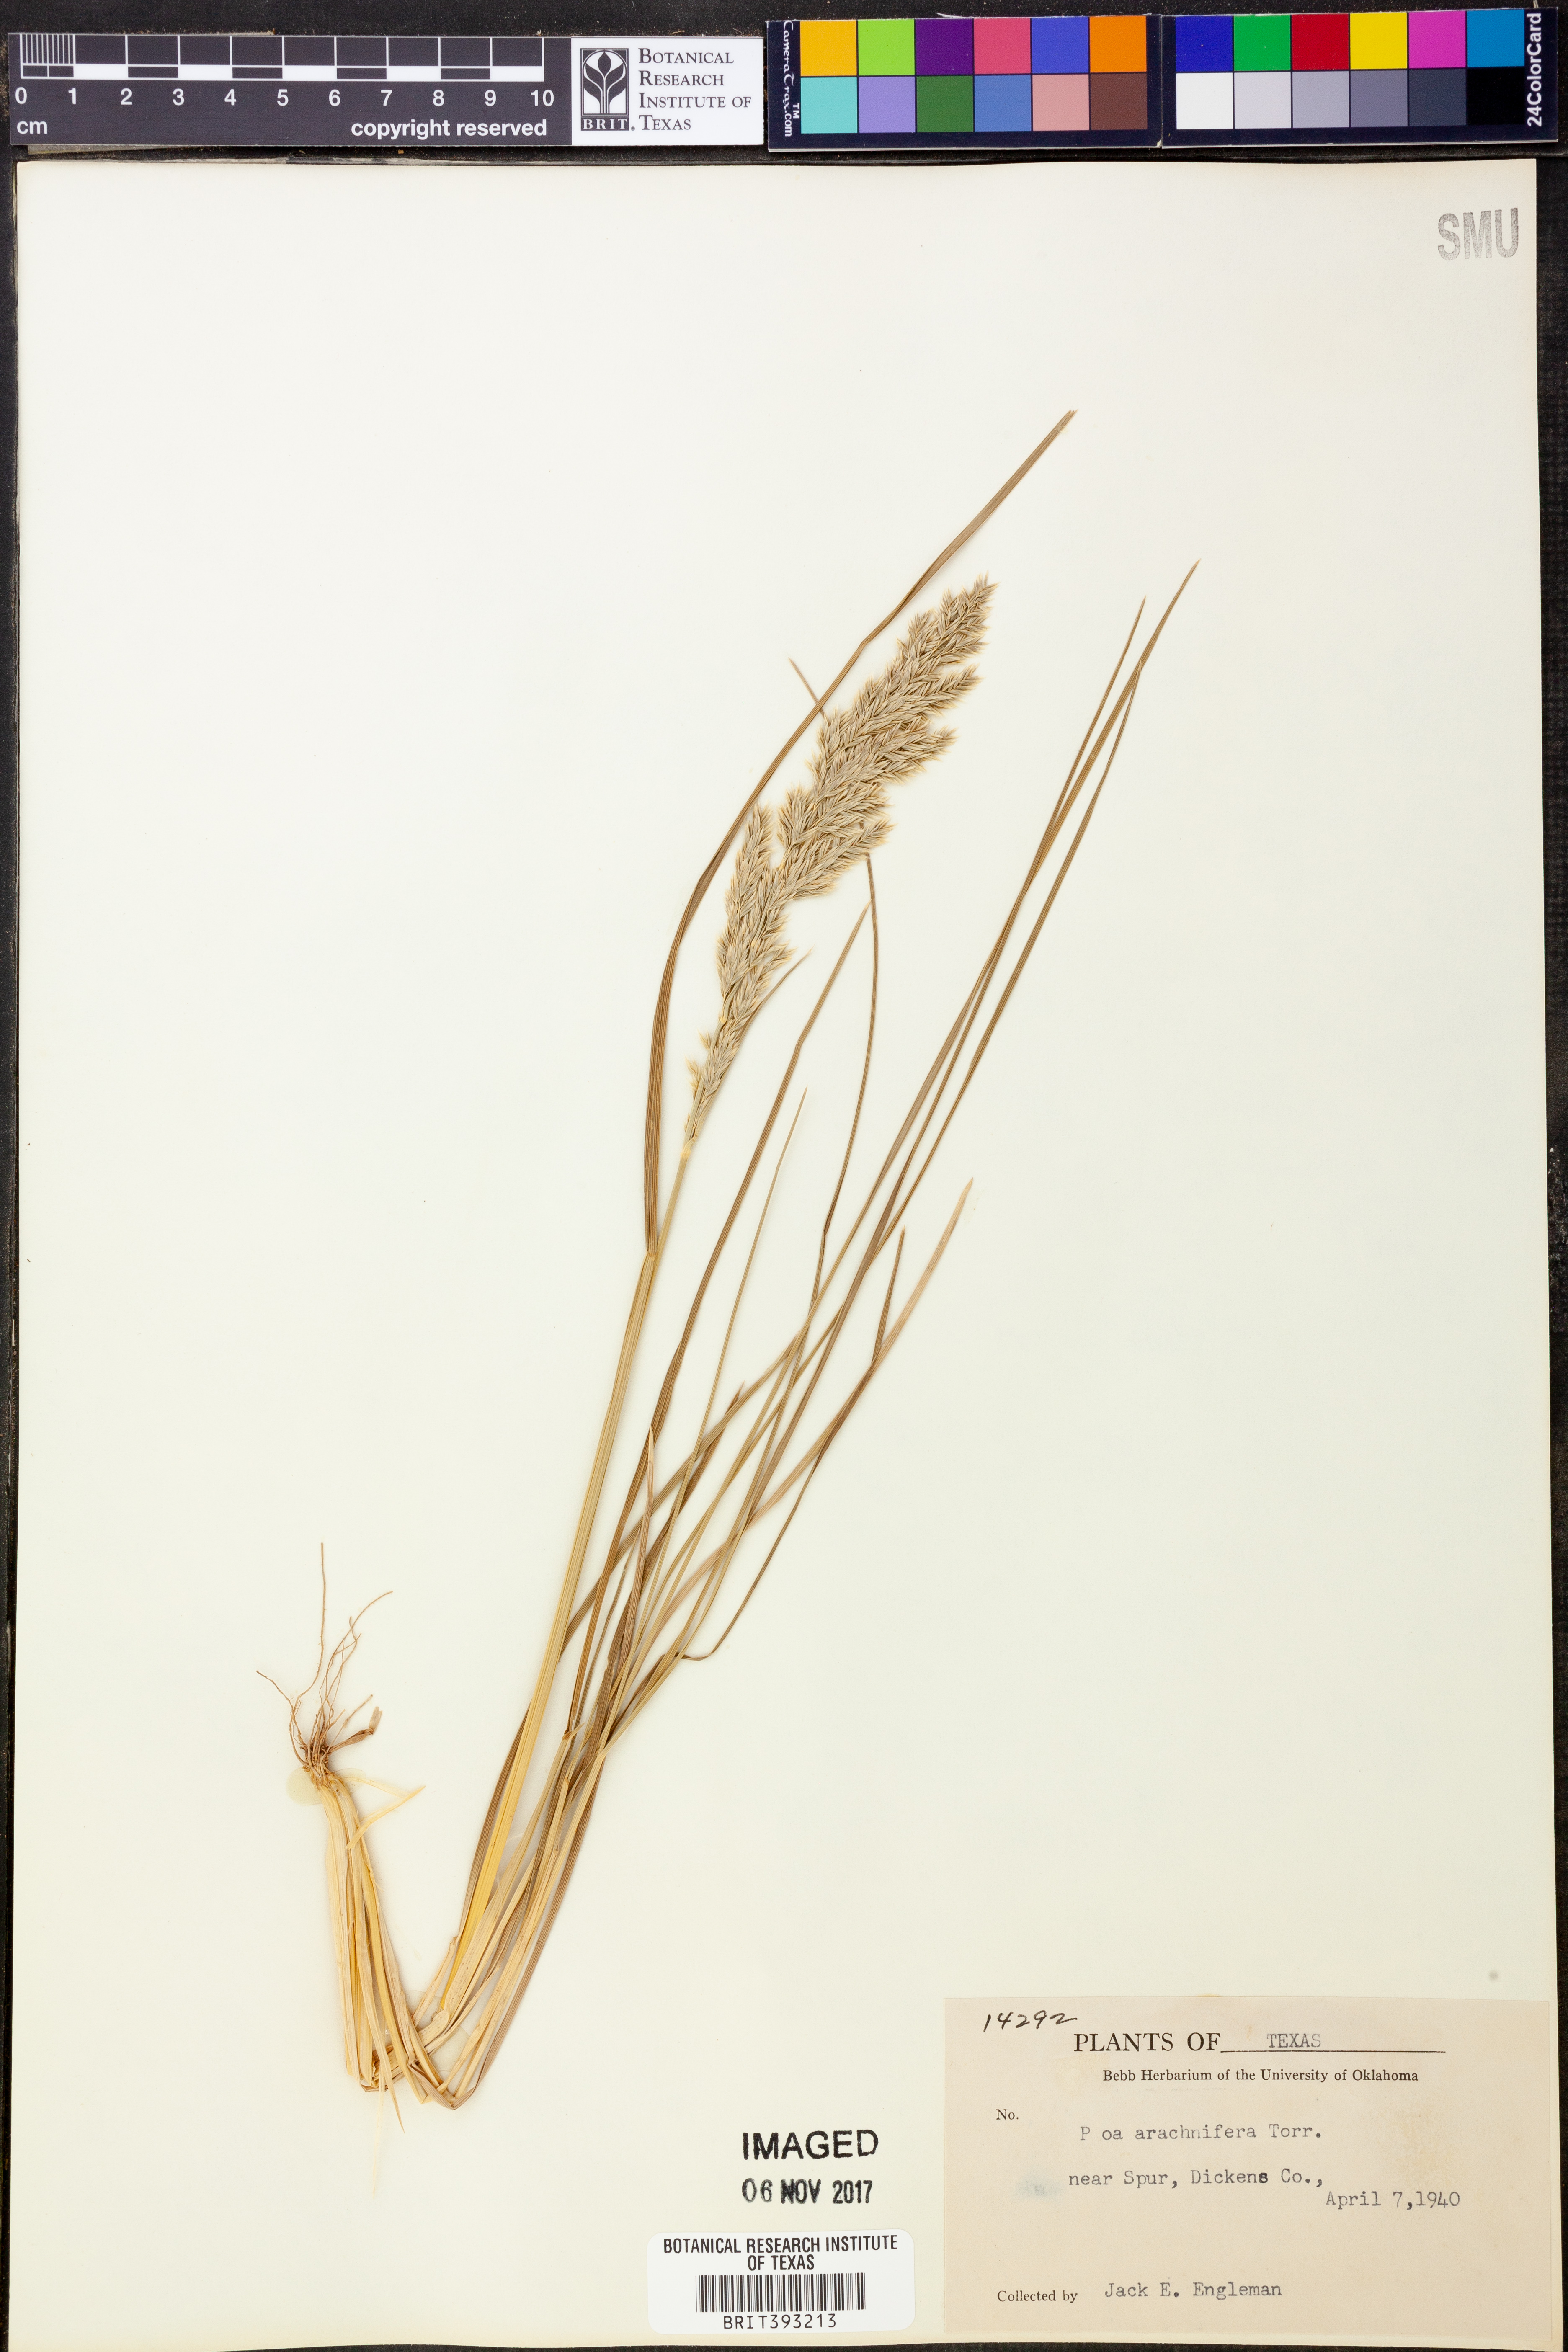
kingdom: Plantae
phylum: Tracheophyta
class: Liliopsida
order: Poales
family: Poaceae
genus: Poa
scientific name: Poa arachnifera
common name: Texas bluegrass
